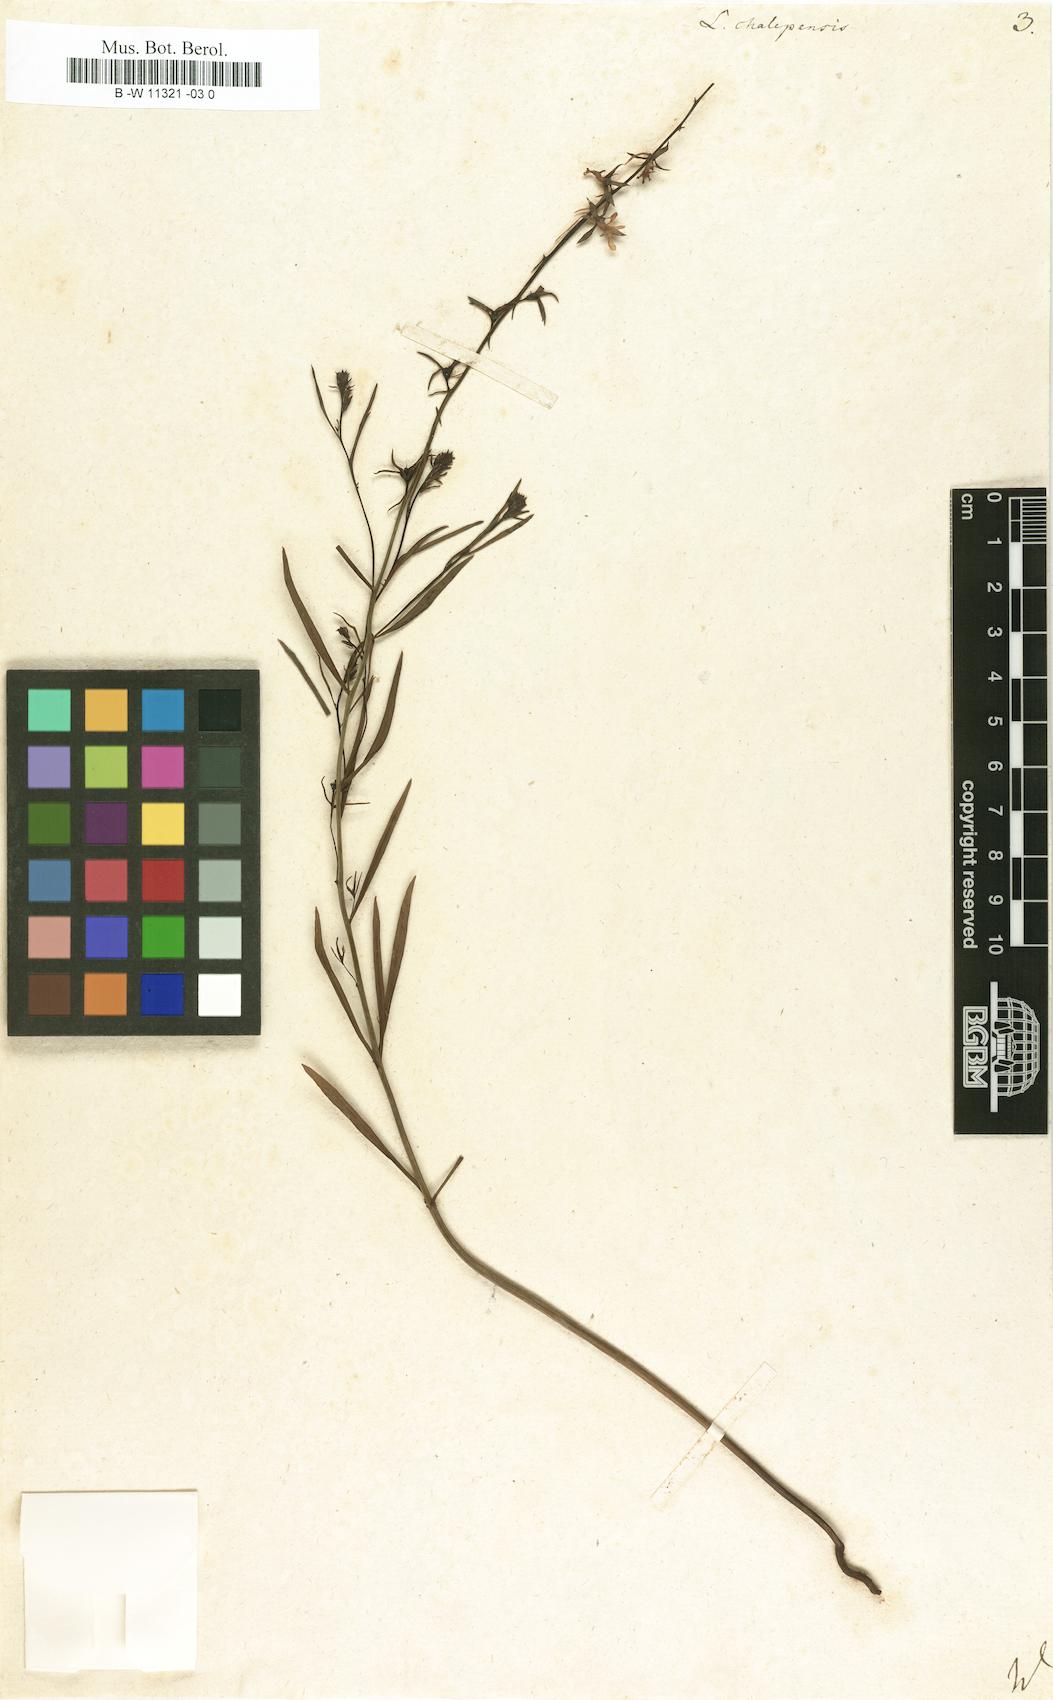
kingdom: Plantae
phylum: Tracheophyta
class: Magnoliopsida
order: Lamiales
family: Plantaginaceae
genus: Linaria
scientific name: Linaria chalepensis
